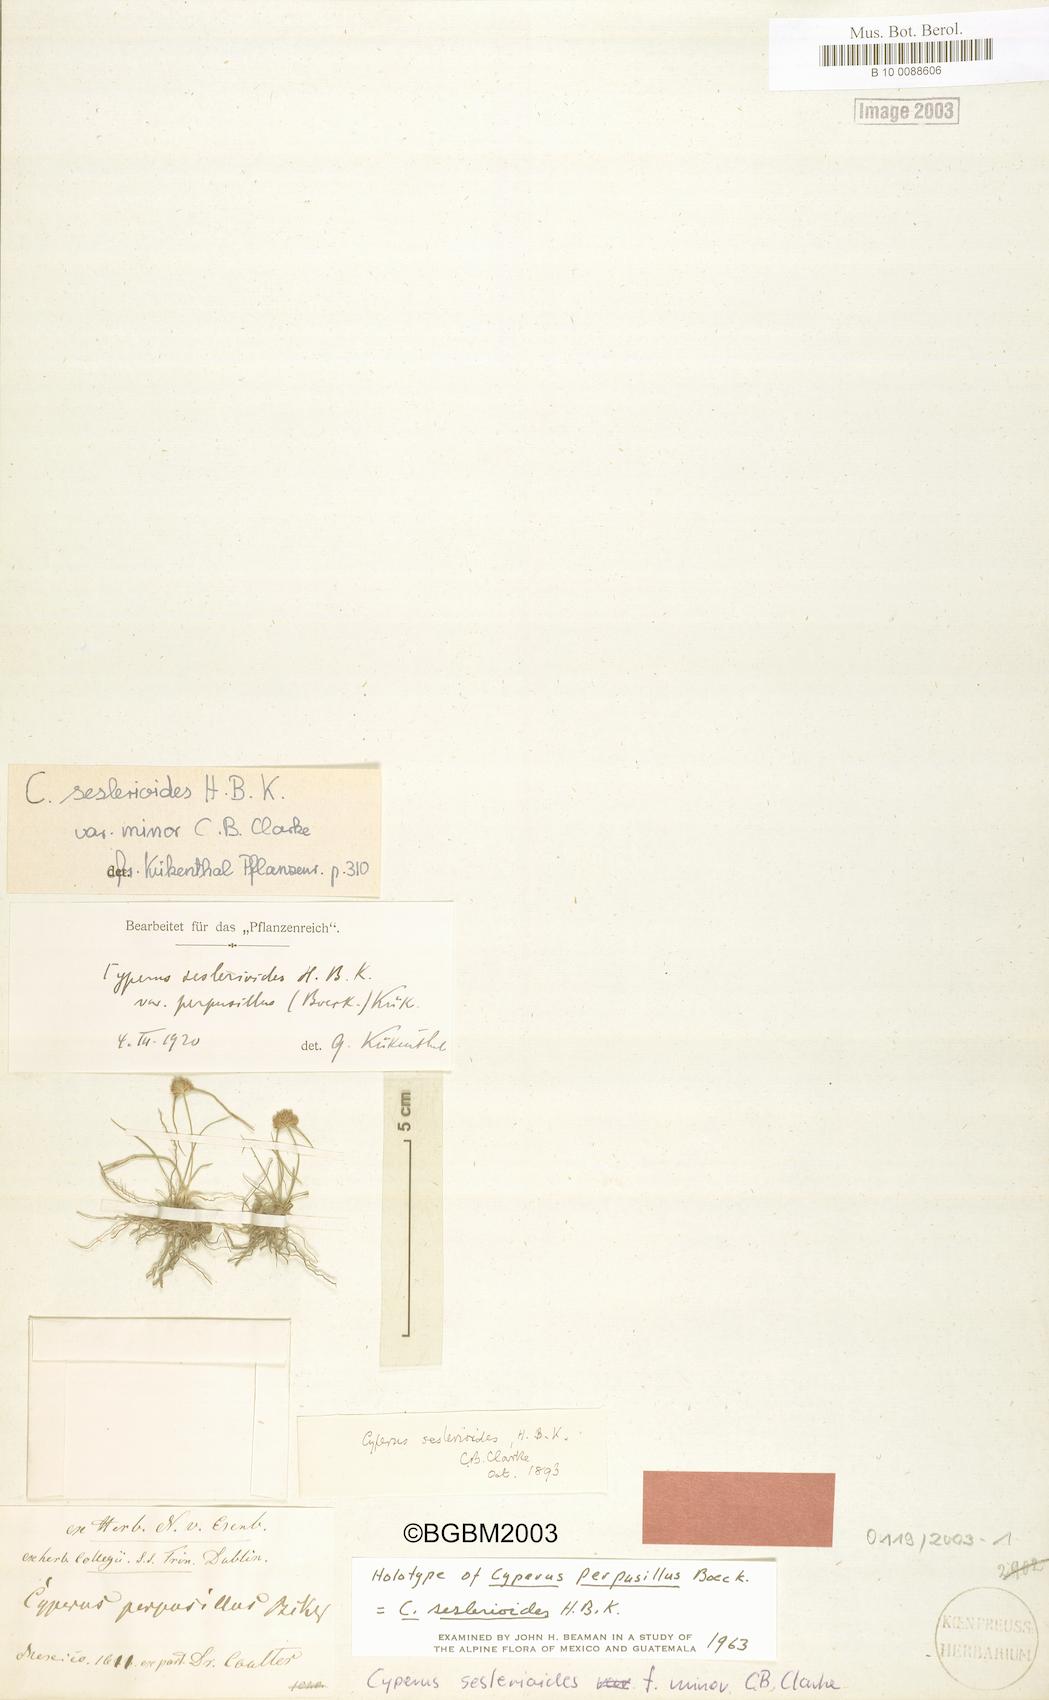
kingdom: Plantae
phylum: Tracheophyta
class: Liliopsida
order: Poales
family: Cyperaceae
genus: Cyperus
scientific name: Cyperus seslerioides
